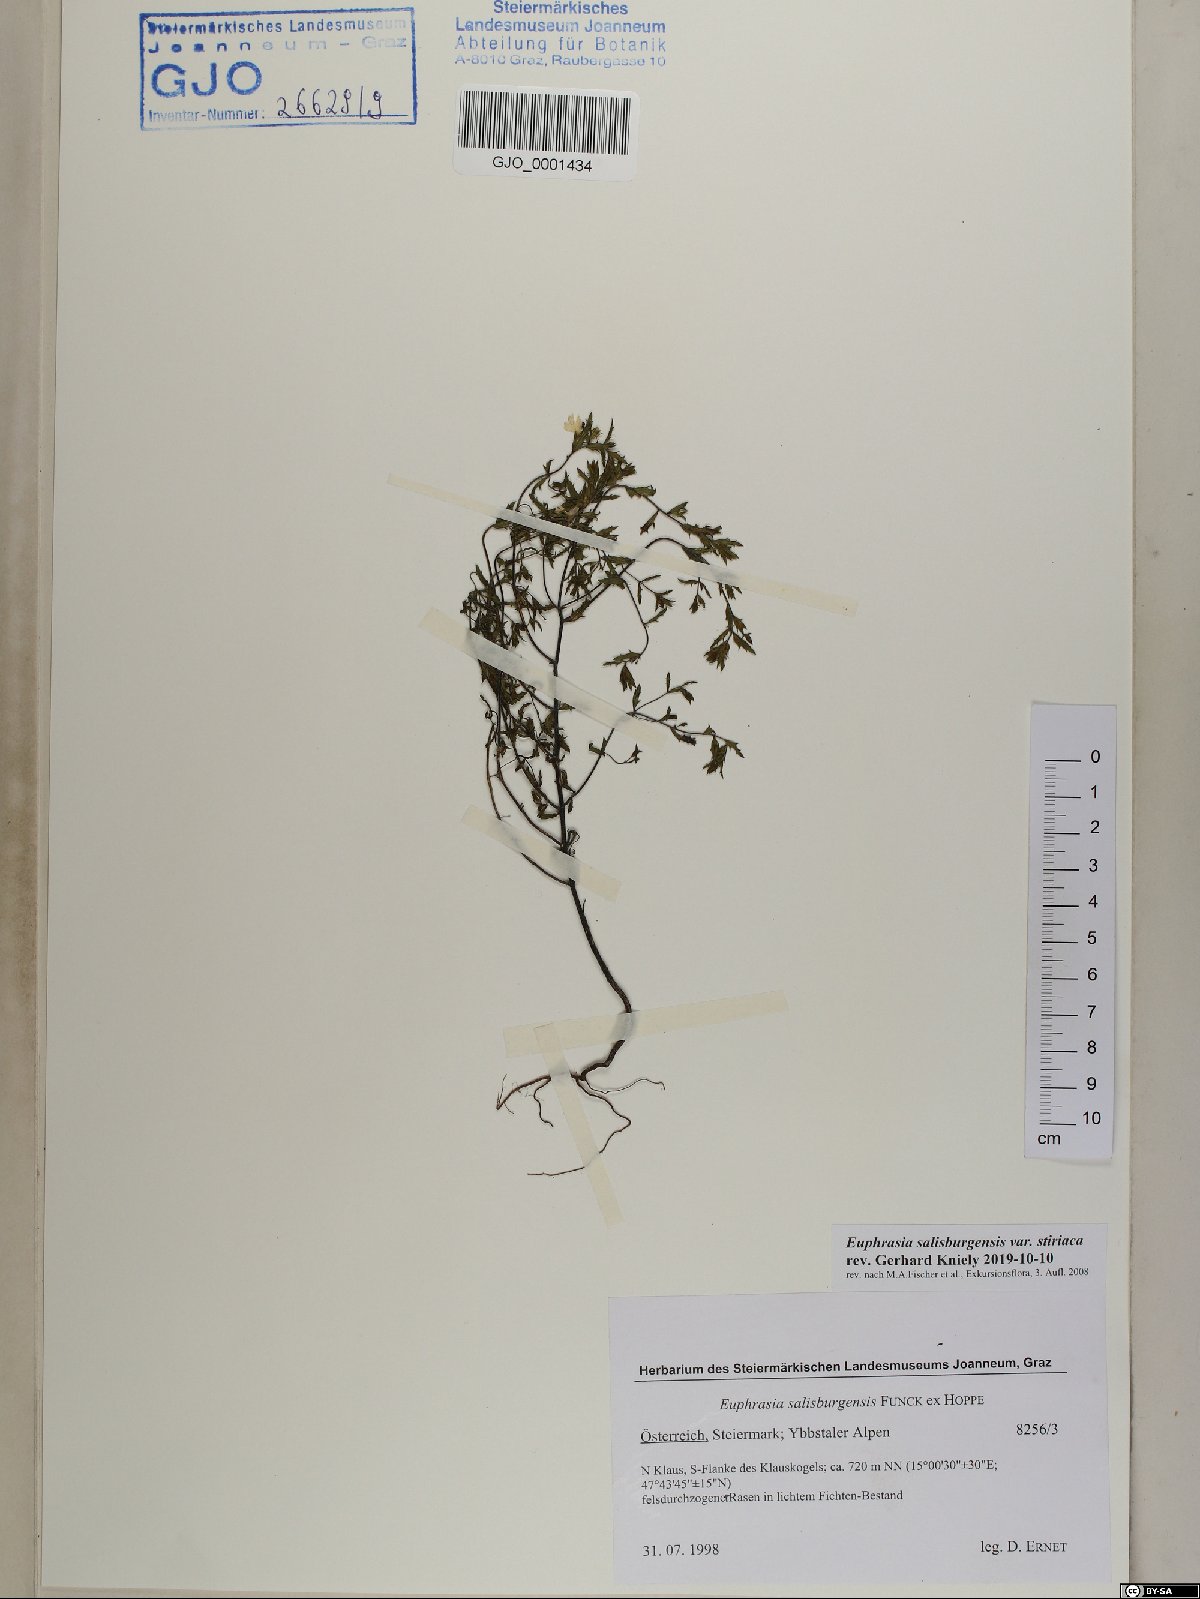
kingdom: Plantae
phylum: Tracheophyta
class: Magnoliopsida
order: Lamiales
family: Orobanchaceae
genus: Euphrasia
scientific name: Euphrasia salisburgensis
